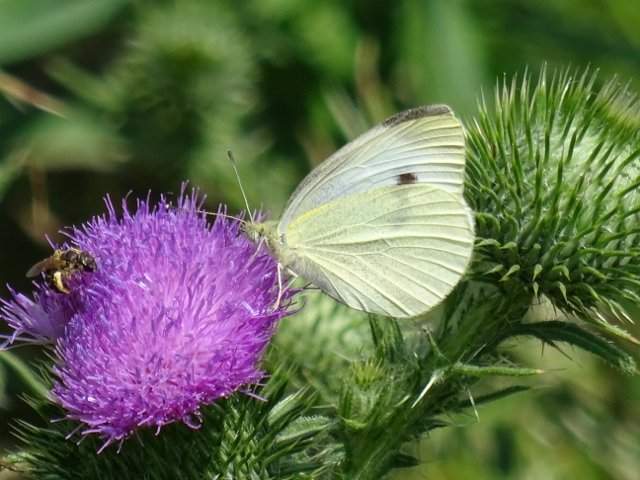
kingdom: Animalia
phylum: Arthropoda
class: Insecta
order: Lepidoptera
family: Pieridae
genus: Pieris
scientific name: Pieris rapae
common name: Cabbage White
